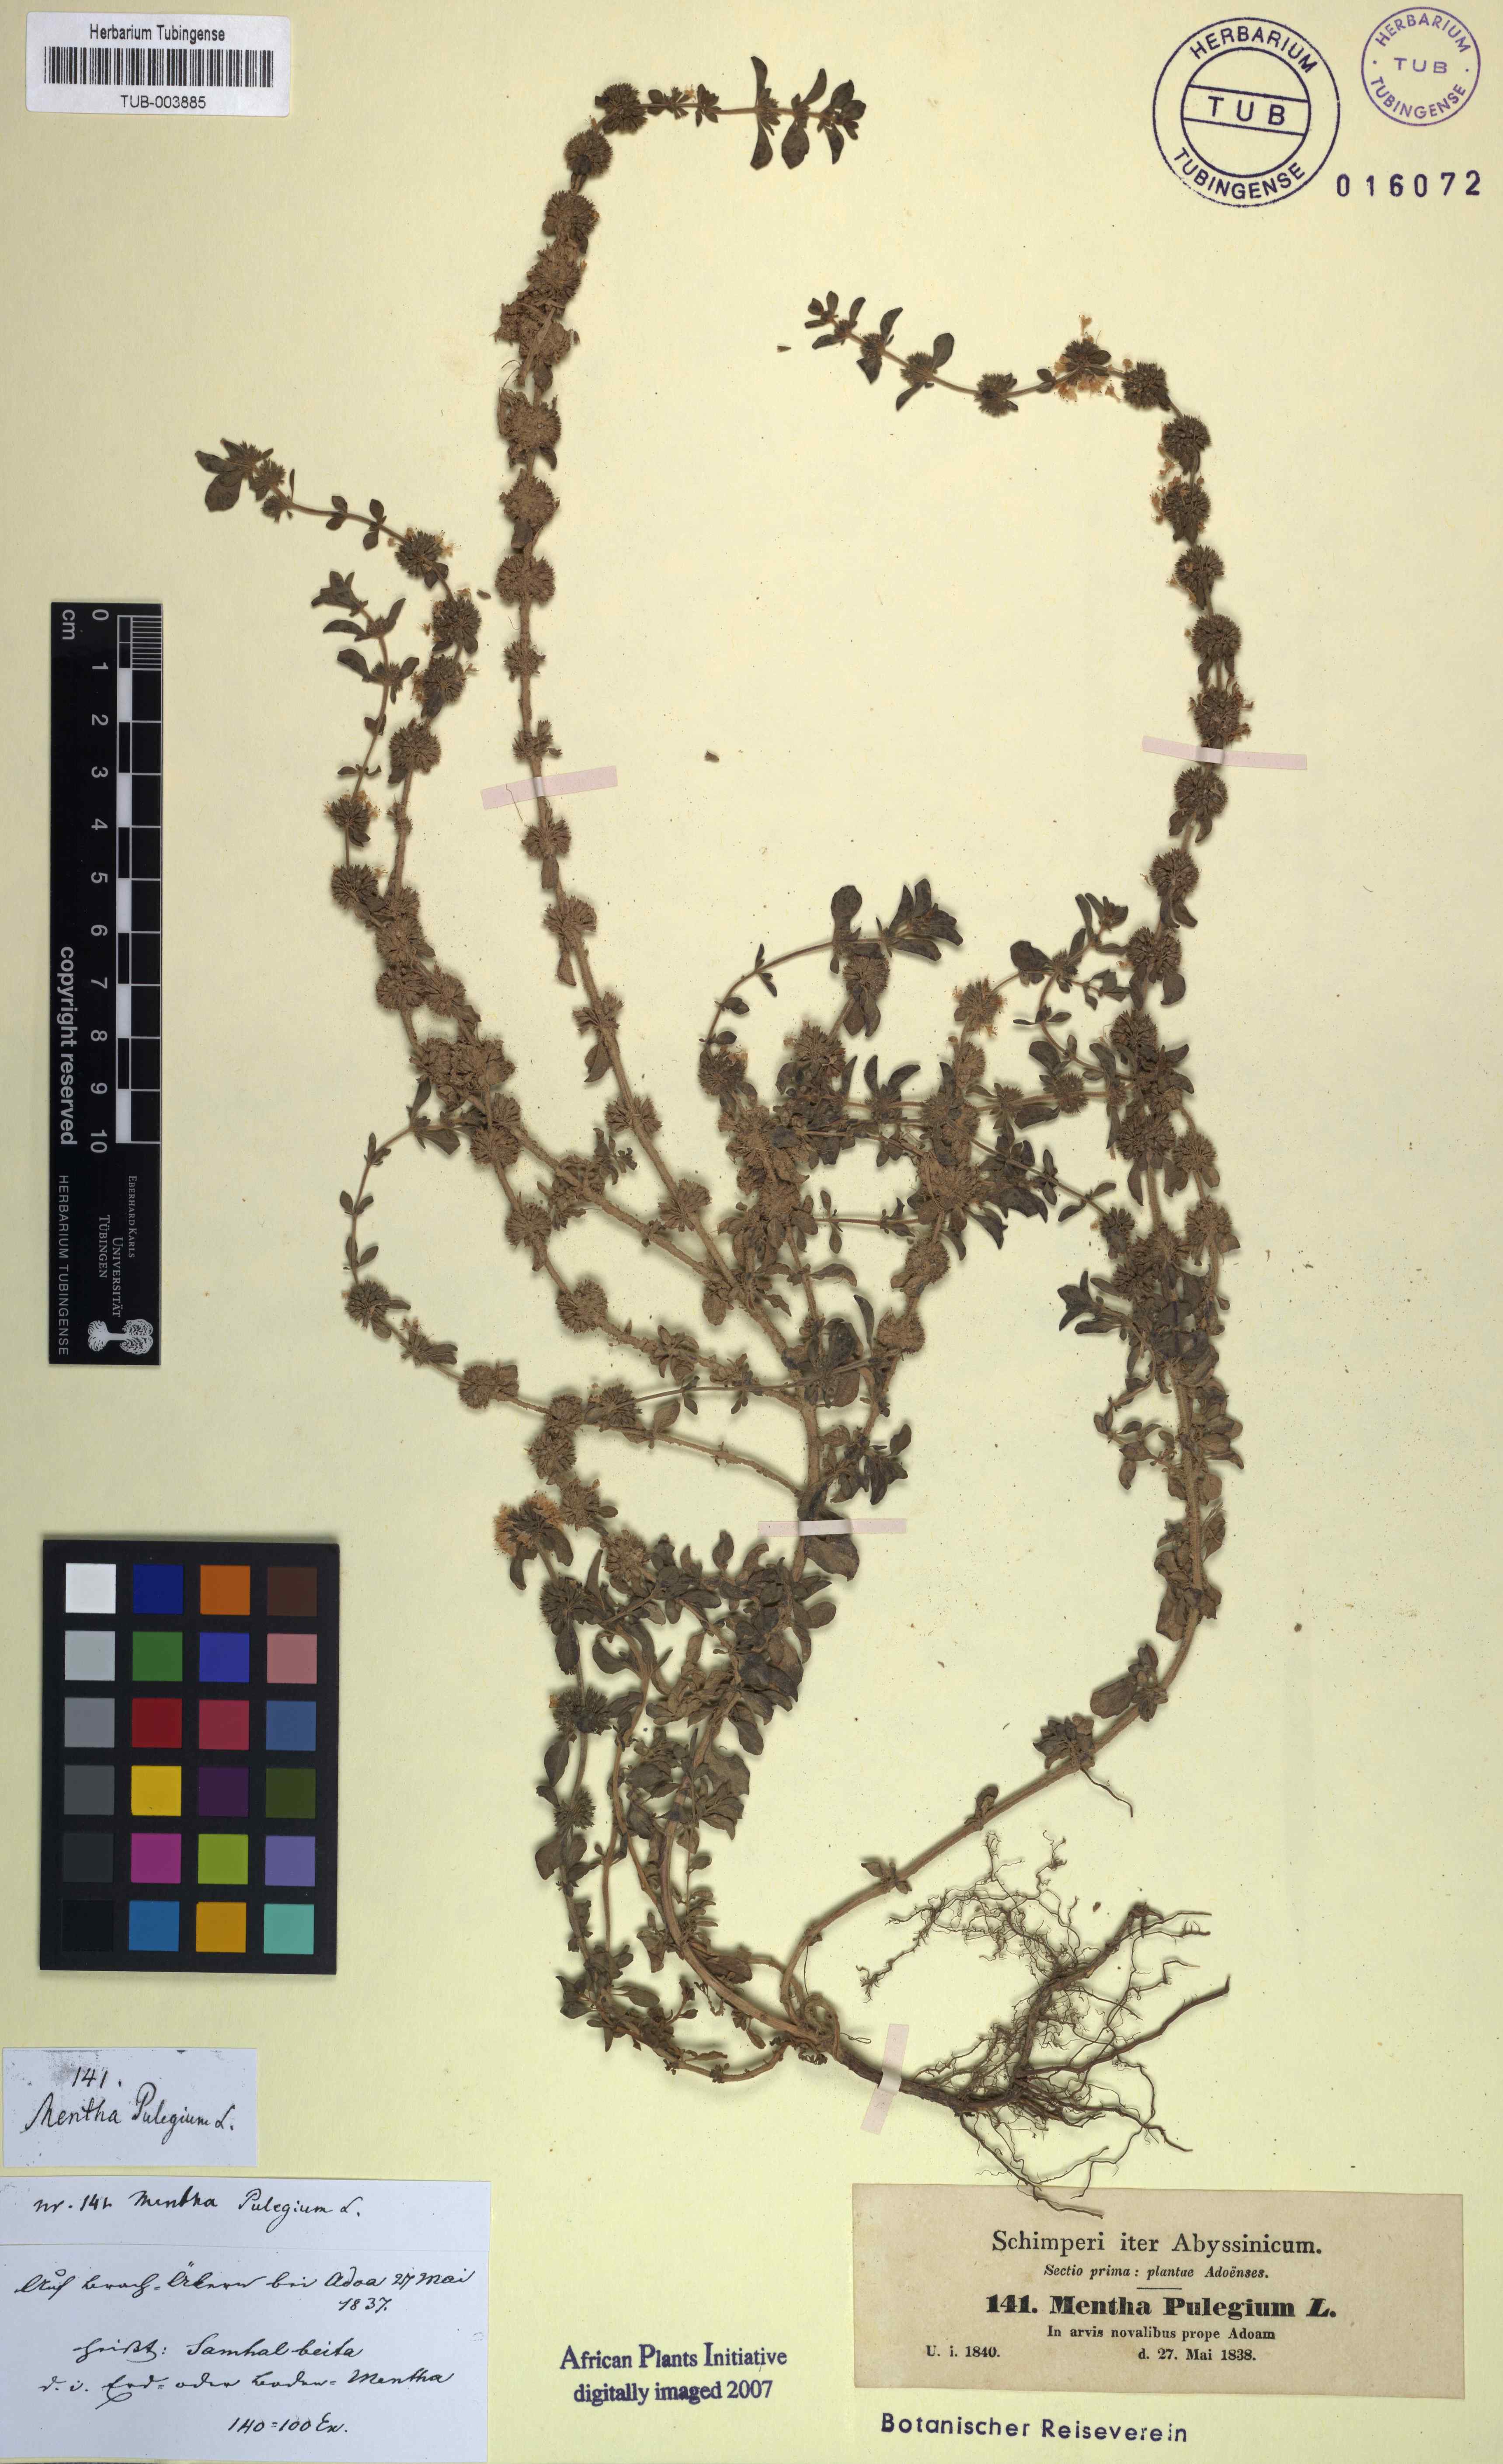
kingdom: Plantae
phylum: Tracheophyta
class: Magnoliopsida
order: Lamiales
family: Lamiaceae
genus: Mentha
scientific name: Mentha pulegium
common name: Pennyroyal
